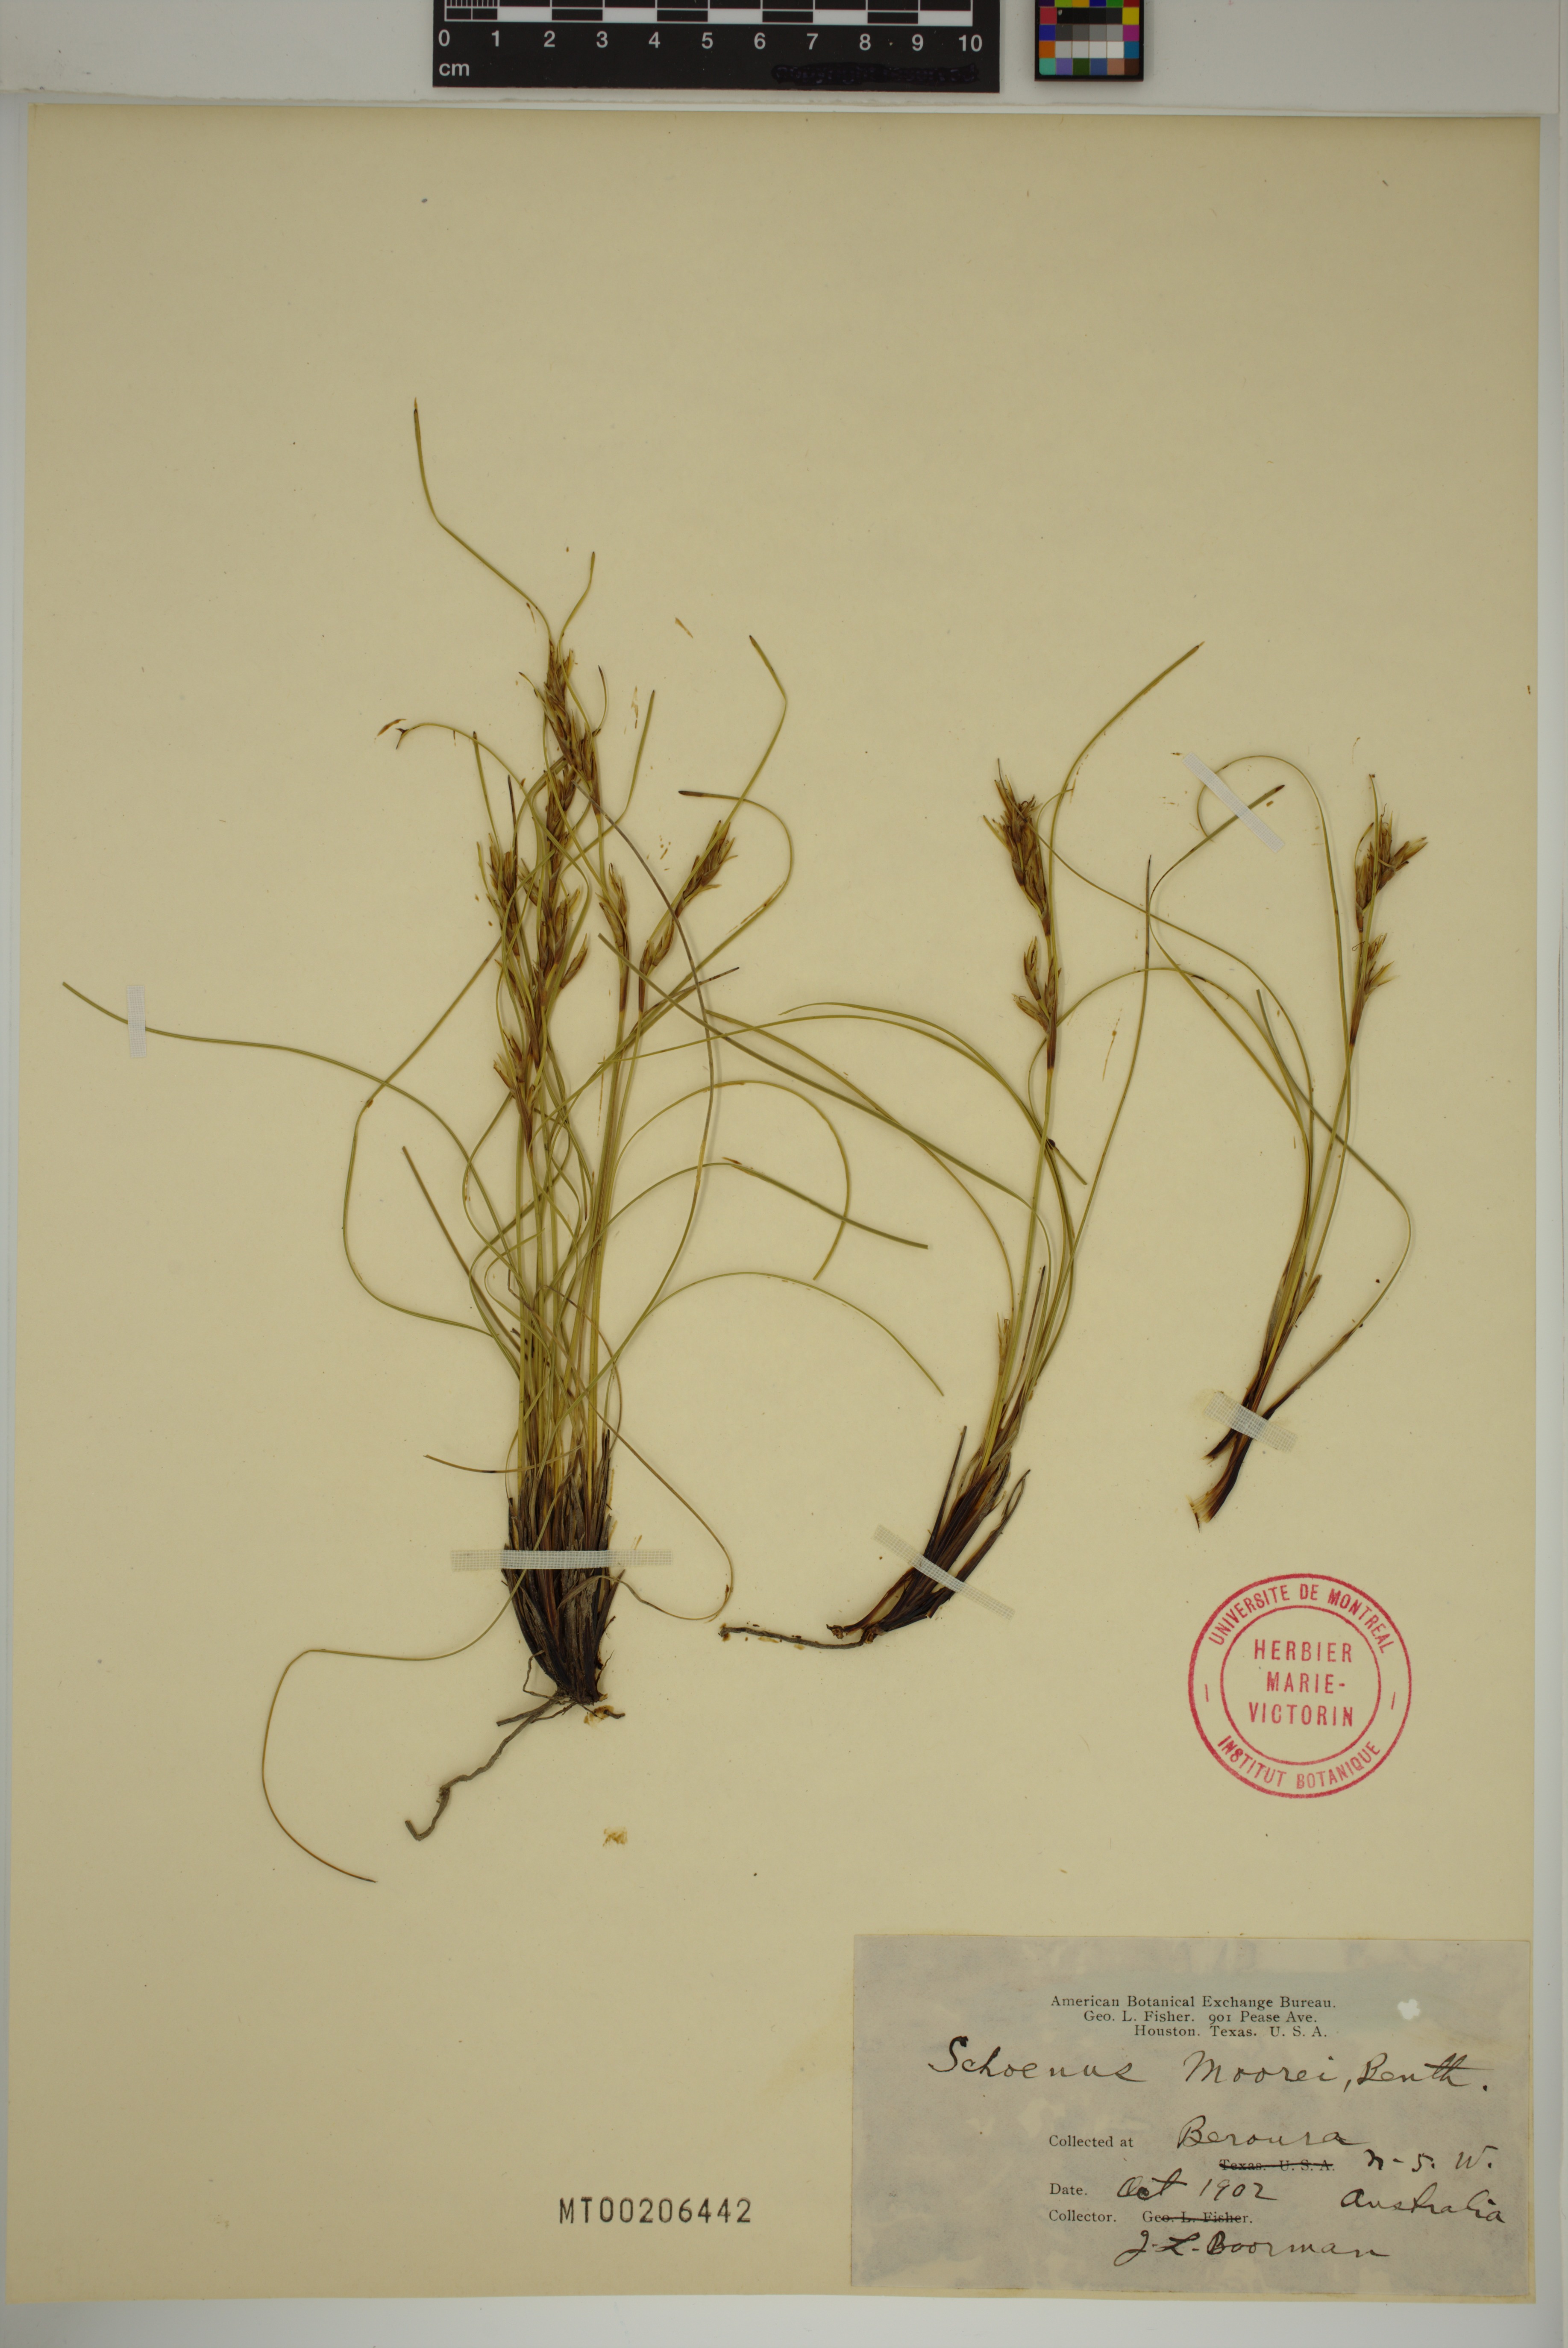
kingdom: Plantae
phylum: Tracheophyta
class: Liliopsida
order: Poales
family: Cyperaceae
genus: Schoenus
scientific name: Schoenus moorei
